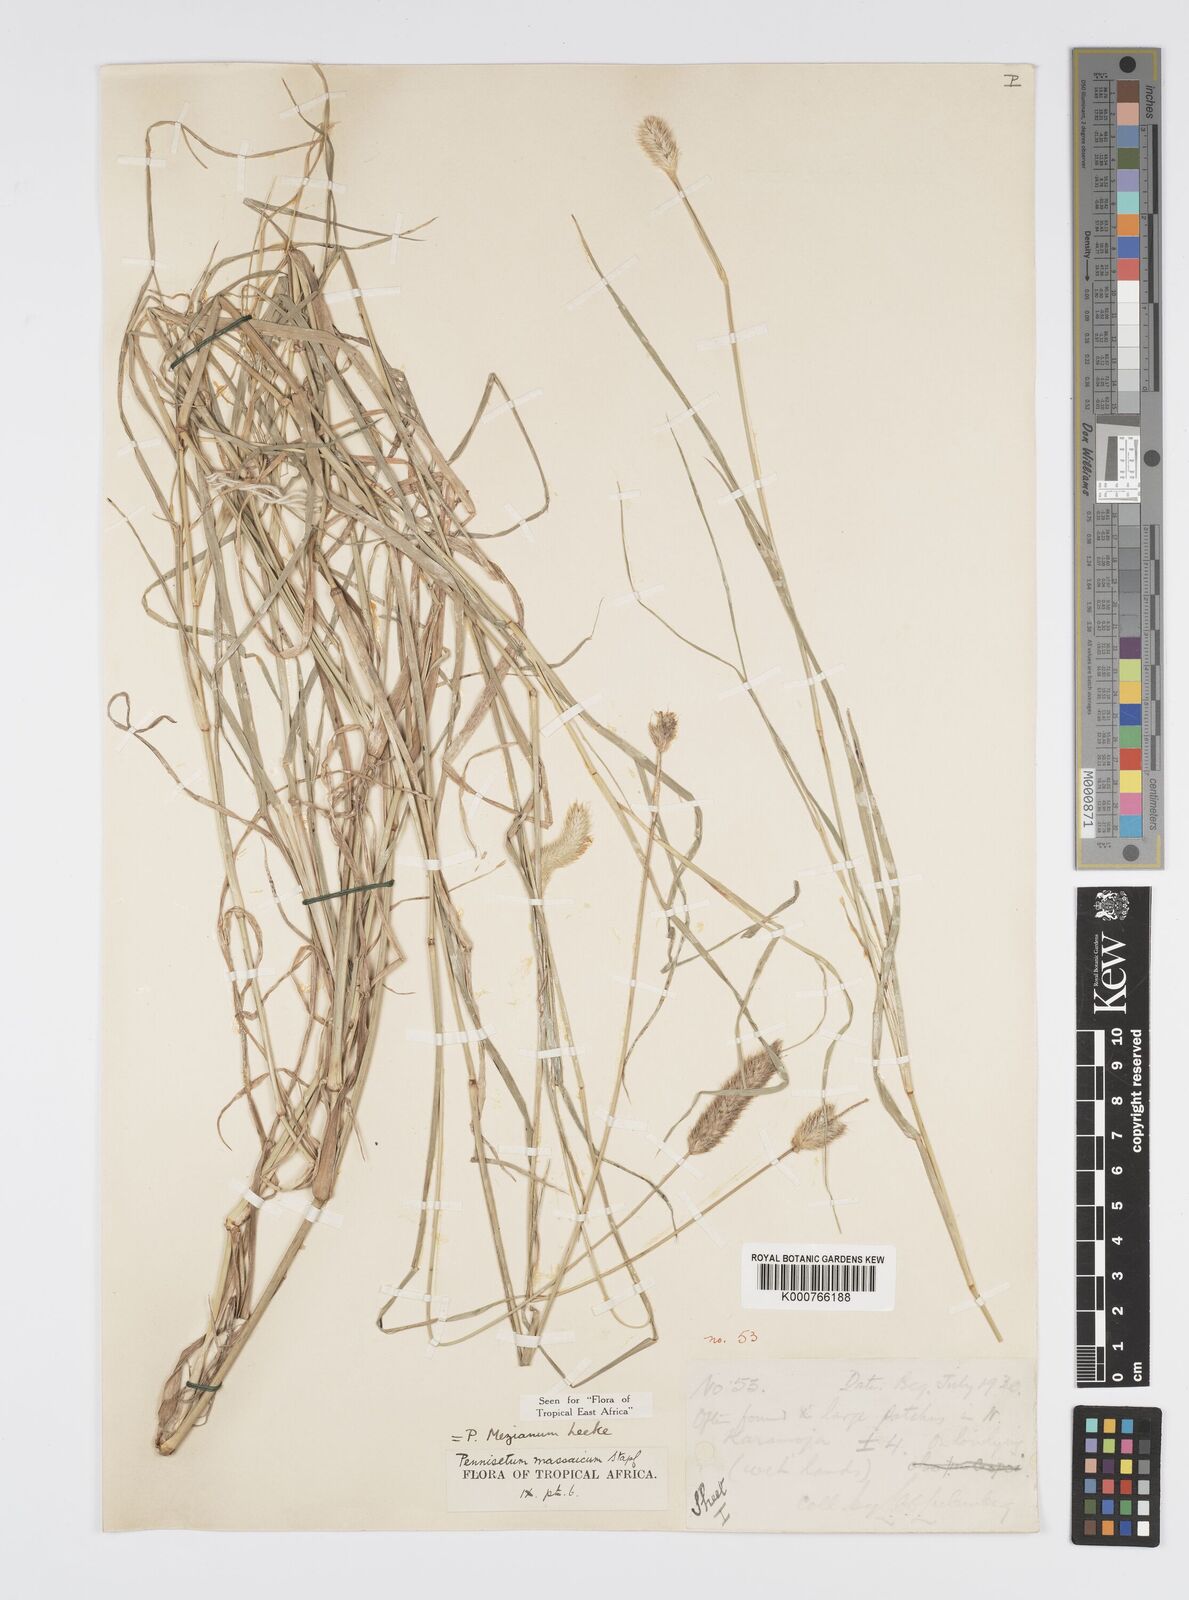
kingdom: Plantae
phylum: Tracheophyta
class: Liliopsida
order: Poales
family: Poaceae
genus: Cenchrus
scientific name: Cenchrus mezianus
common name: Bamboo grass
